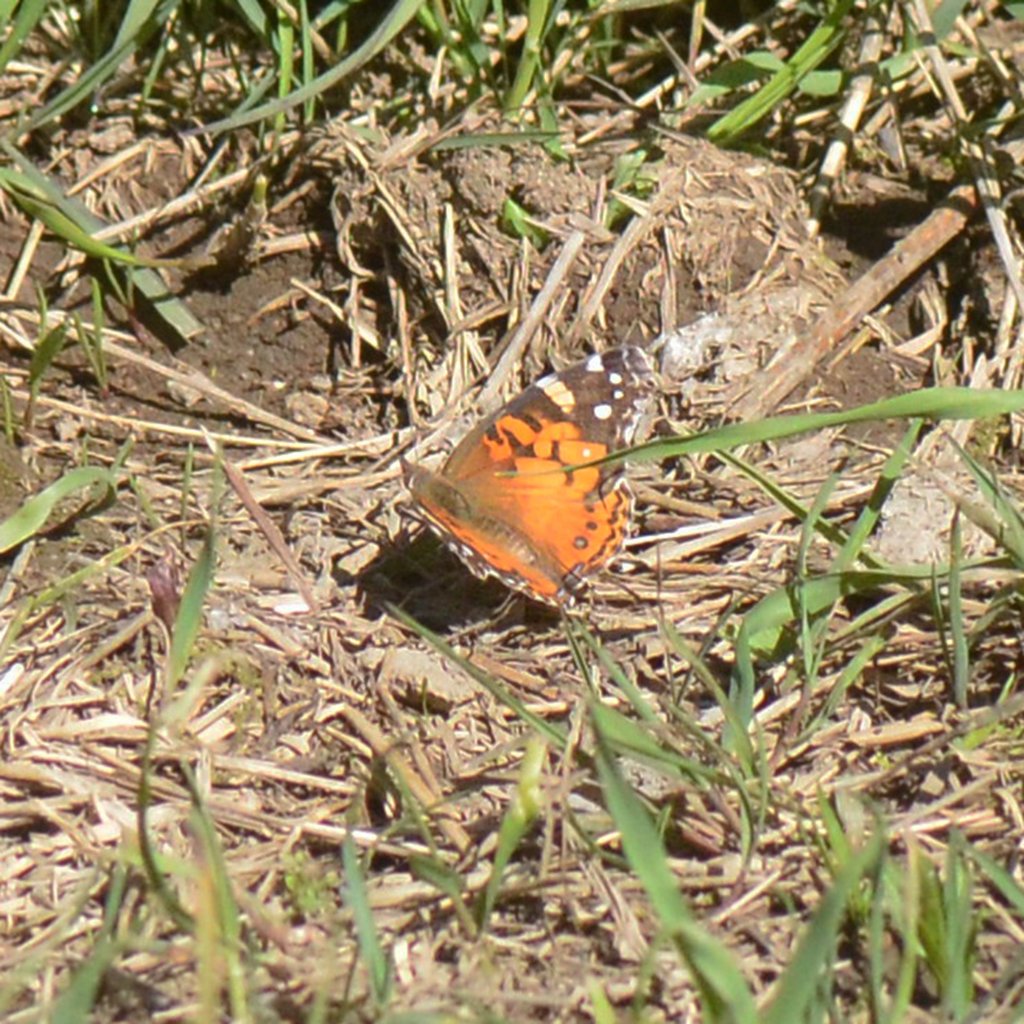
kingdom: Animalia
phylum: Arthropoda
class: Insecta
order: Lepidoptera
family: Nymphalidae
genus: Vanessa
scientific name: Vanessa virginiensis
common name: American Lady
